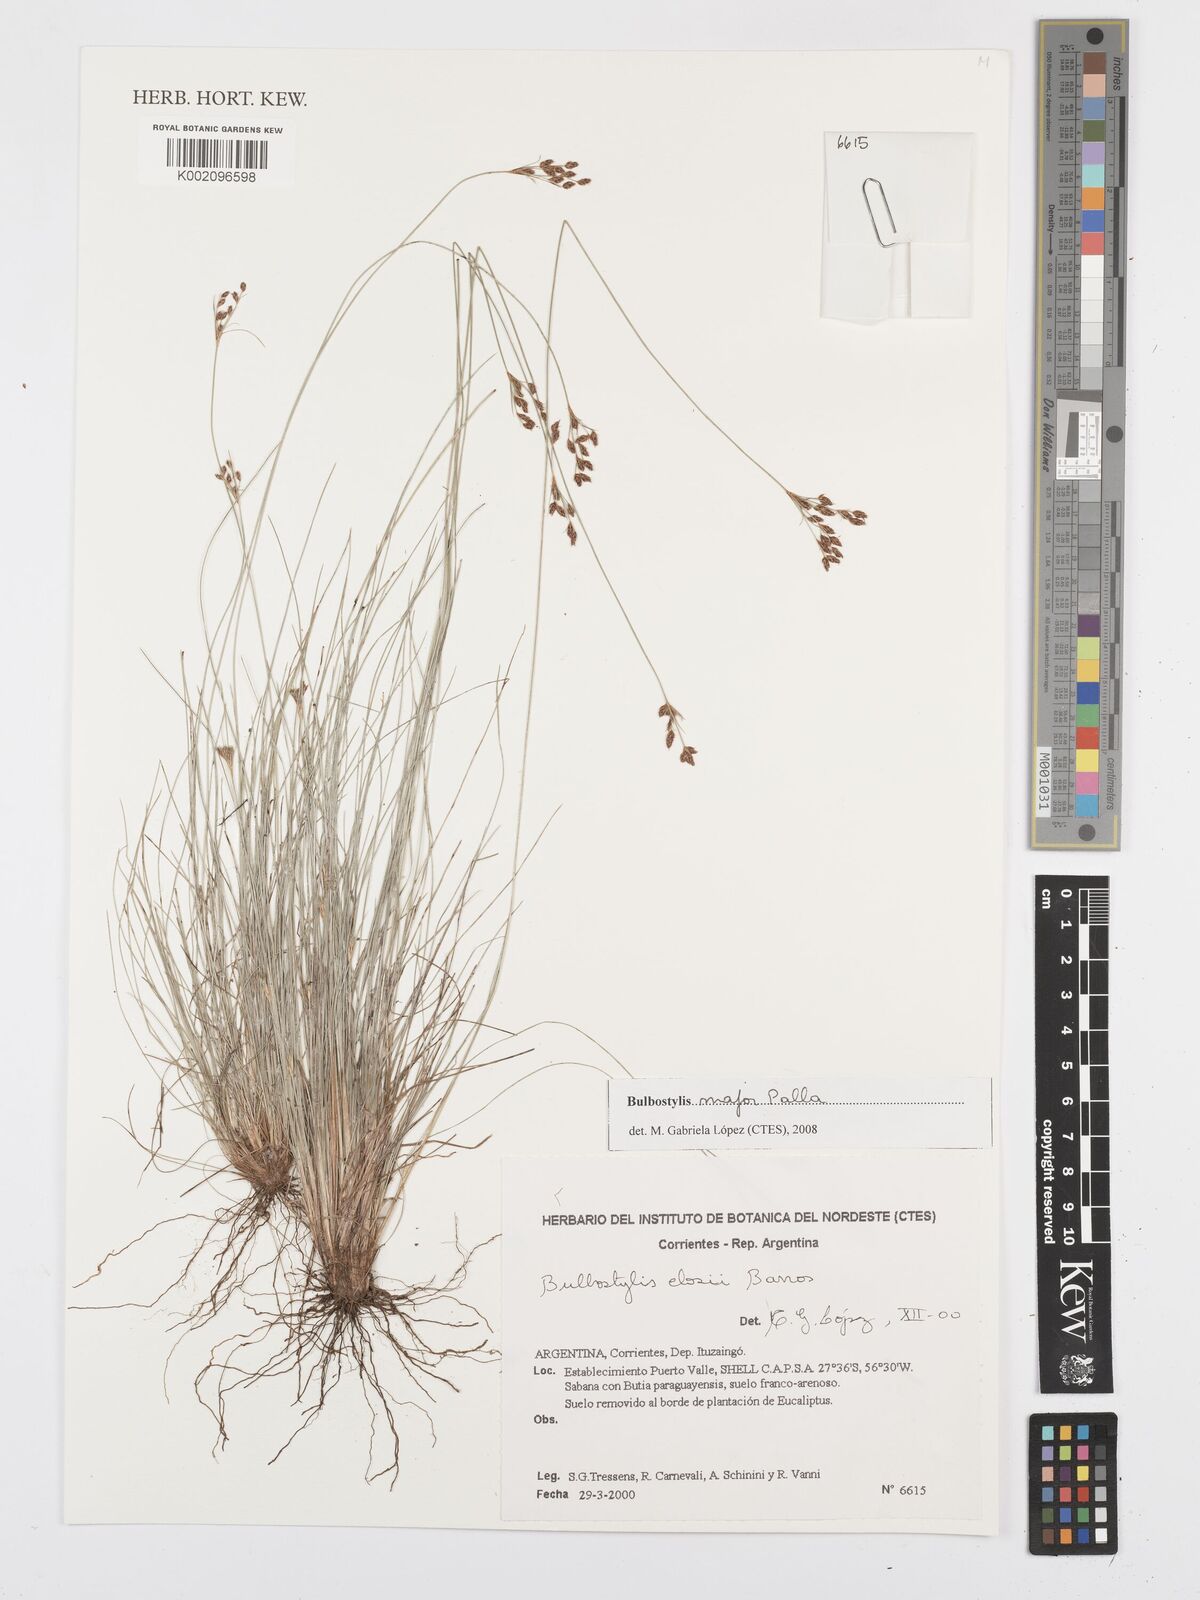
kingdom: Plantae
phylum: Tracheophyta
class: Liliopsida
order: Poales
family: Cyperaceae
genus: Bulbostylis
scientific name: Bulbostylis major
